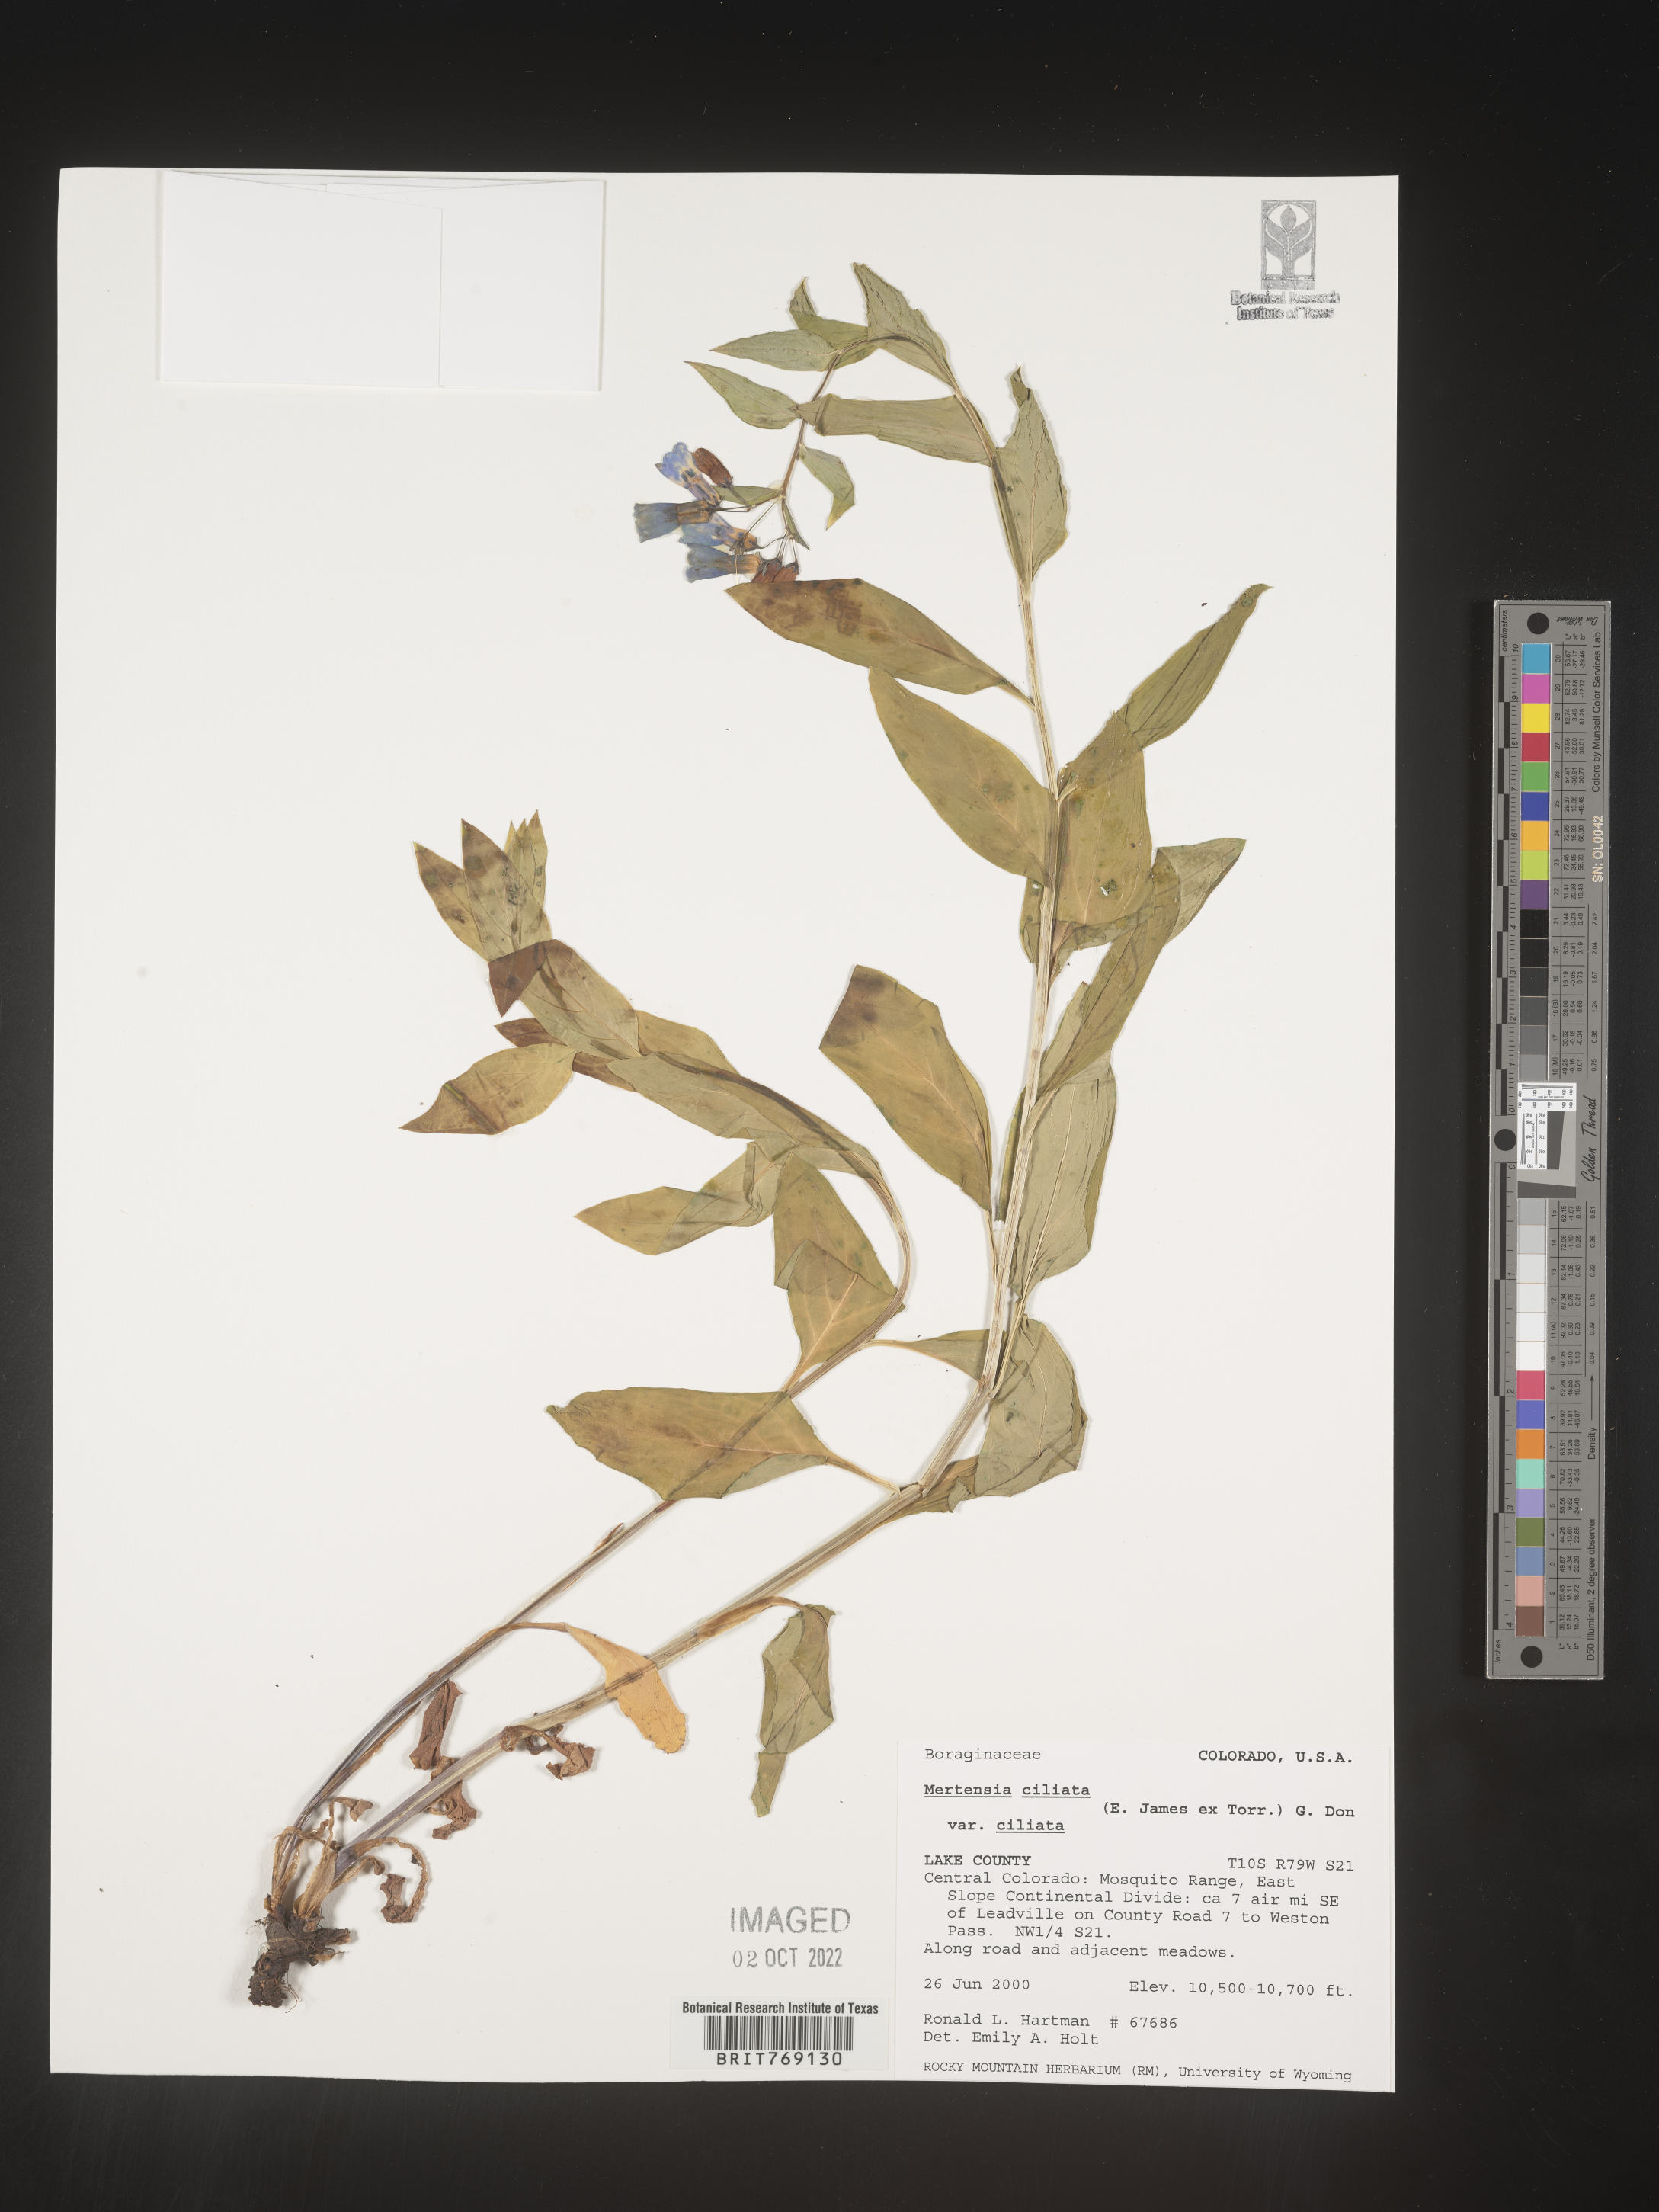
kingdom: Plantae
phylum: Tracheophyta
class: Magnoliopsida
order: Boraginales
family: Boraginaceae
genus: Mertensia
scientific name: Mertensia
